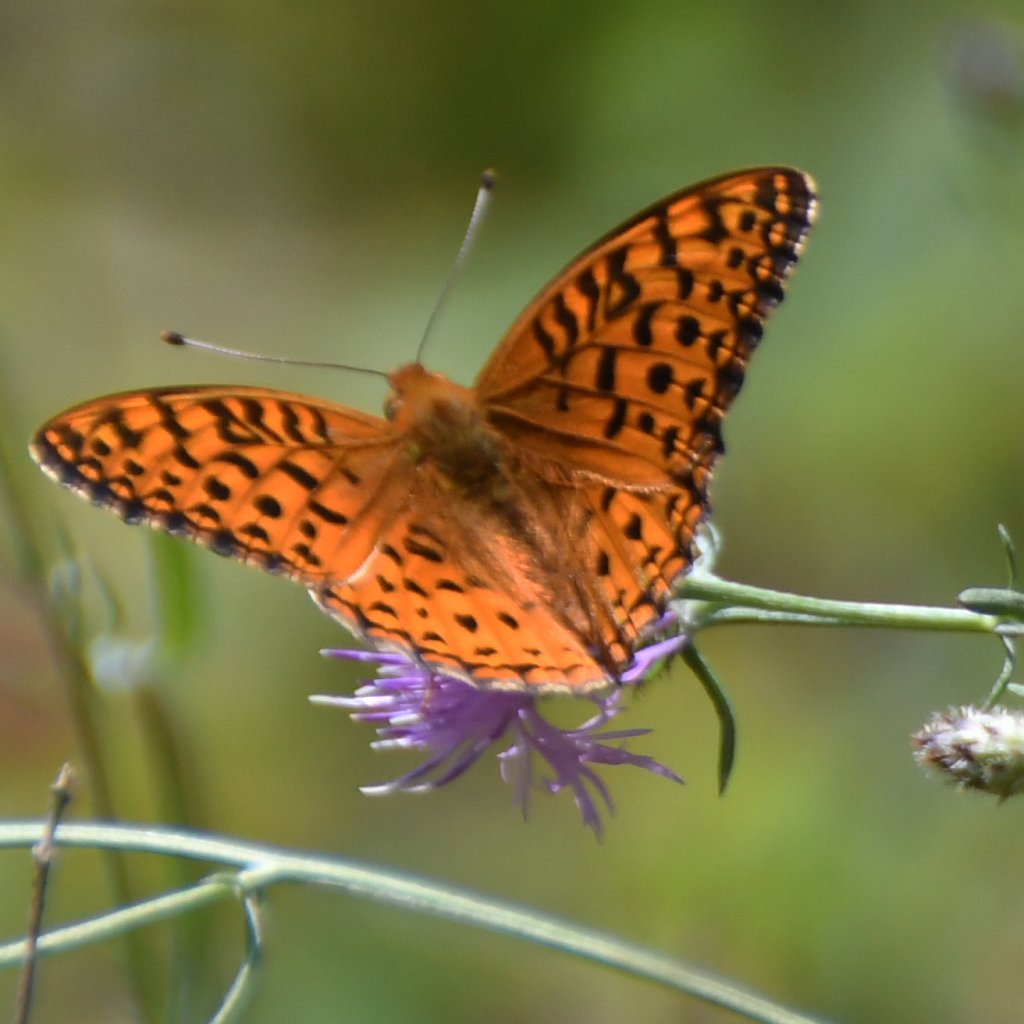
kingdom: Animalia
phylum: Arthropoda
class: Insecta
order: Lepidoptera
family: Nymphalidae
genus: Speyeria
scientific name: Speyeria aphrodite
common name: Aphrodite Fritillary
